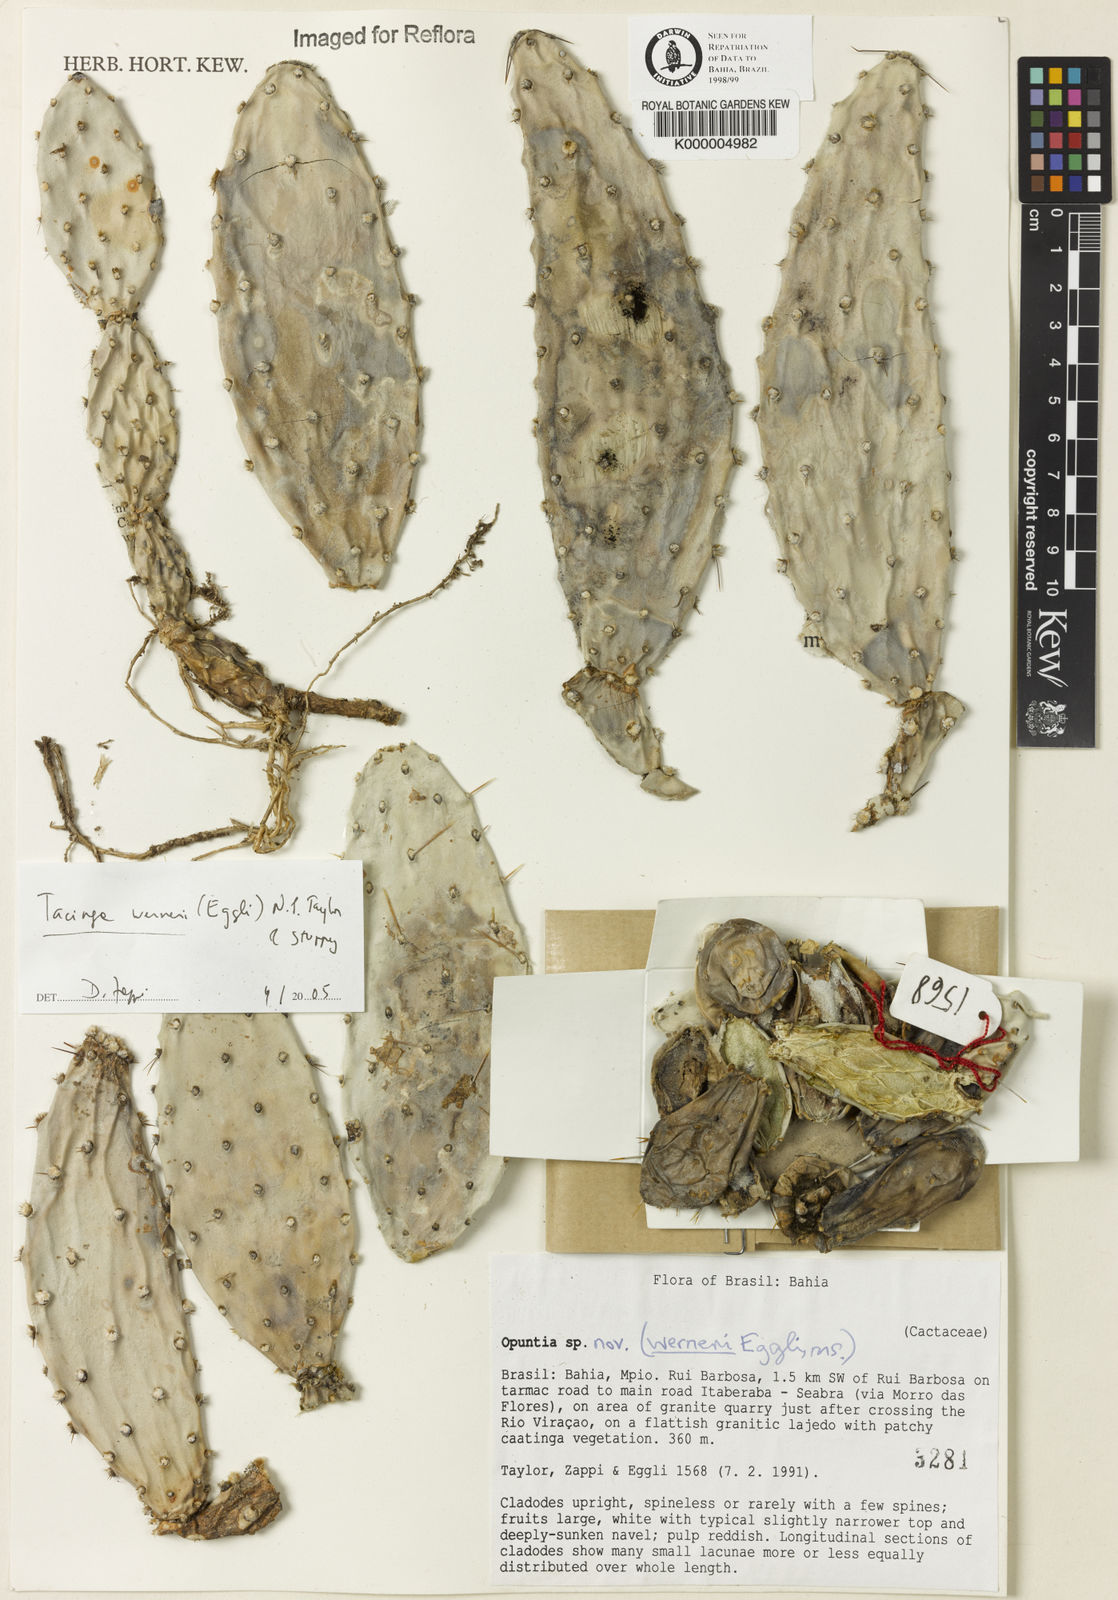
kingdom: Plantae
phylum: Tracheophyta
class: Magnoliopsida
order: Caryophyllales
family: Cactaceae
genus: Tacinga
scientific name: Tacinga werneri
